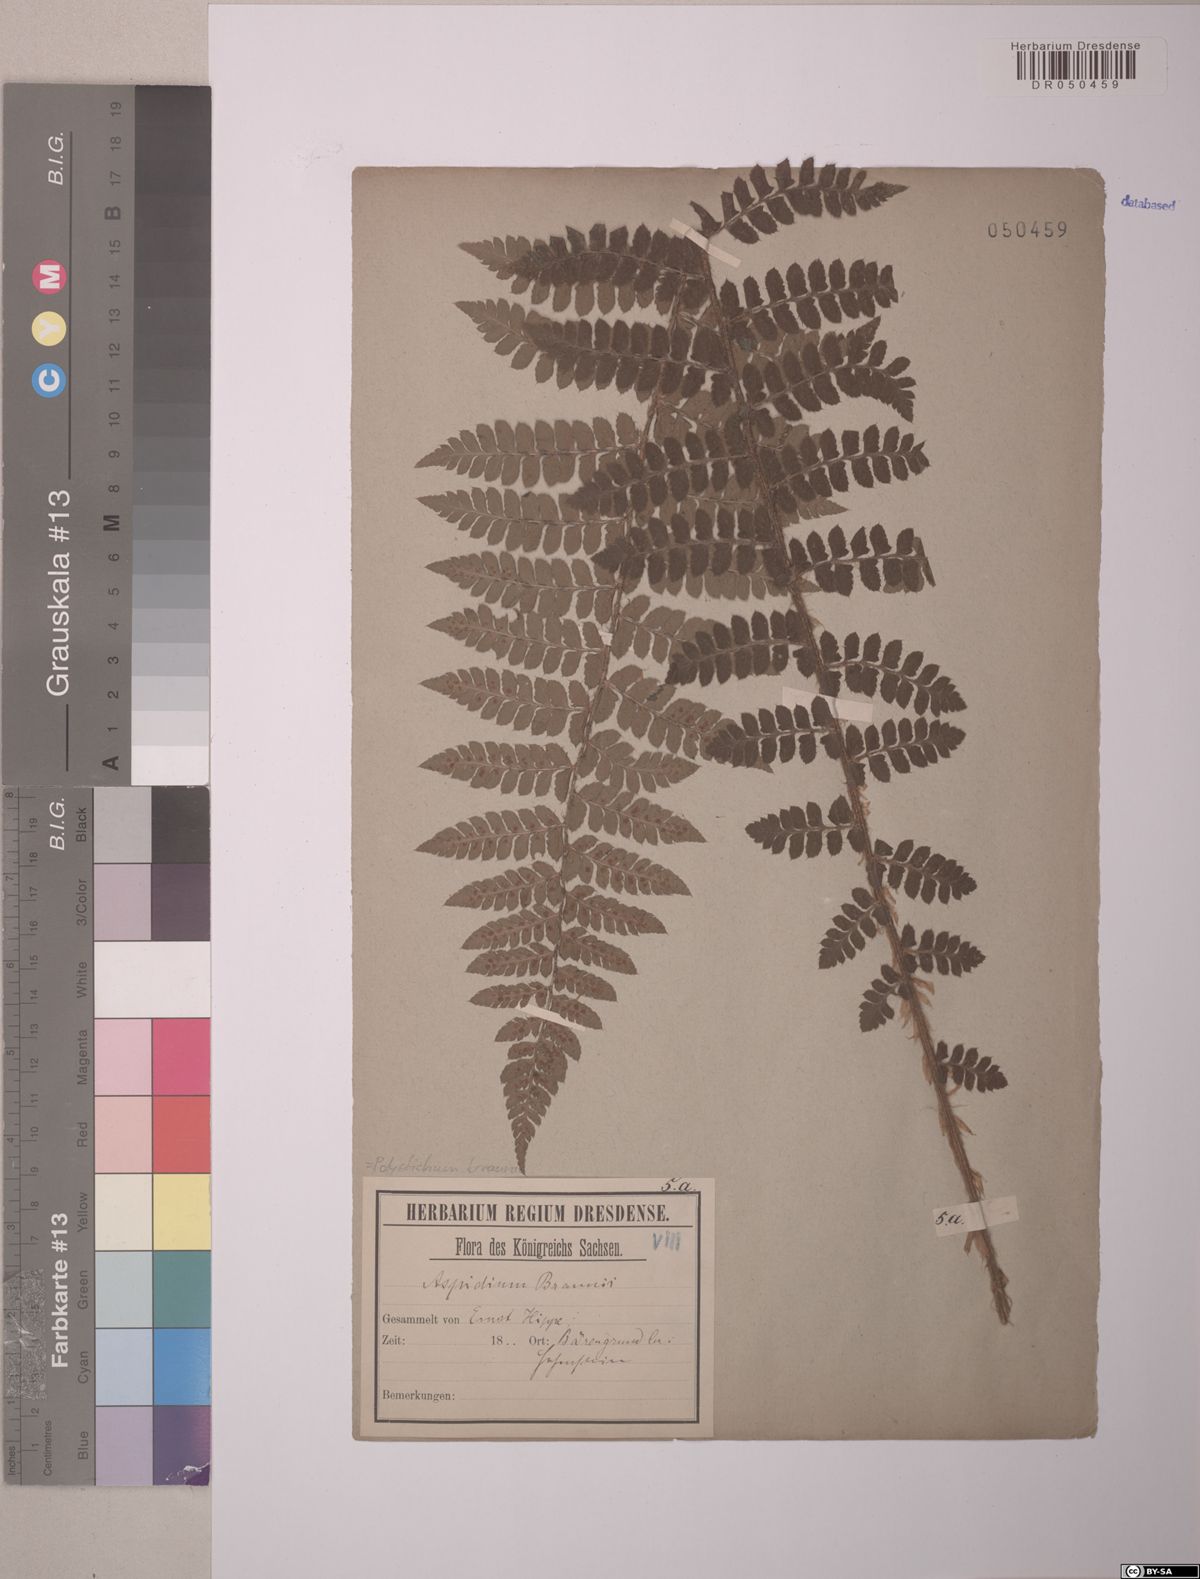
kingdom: Plantae
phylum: Tracheophyta
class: Polypodiopsida
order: Polypodiales
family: Dryopteridaceae
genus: Polystichum
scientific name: Polystichum braunii
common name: Braun's holly fern
